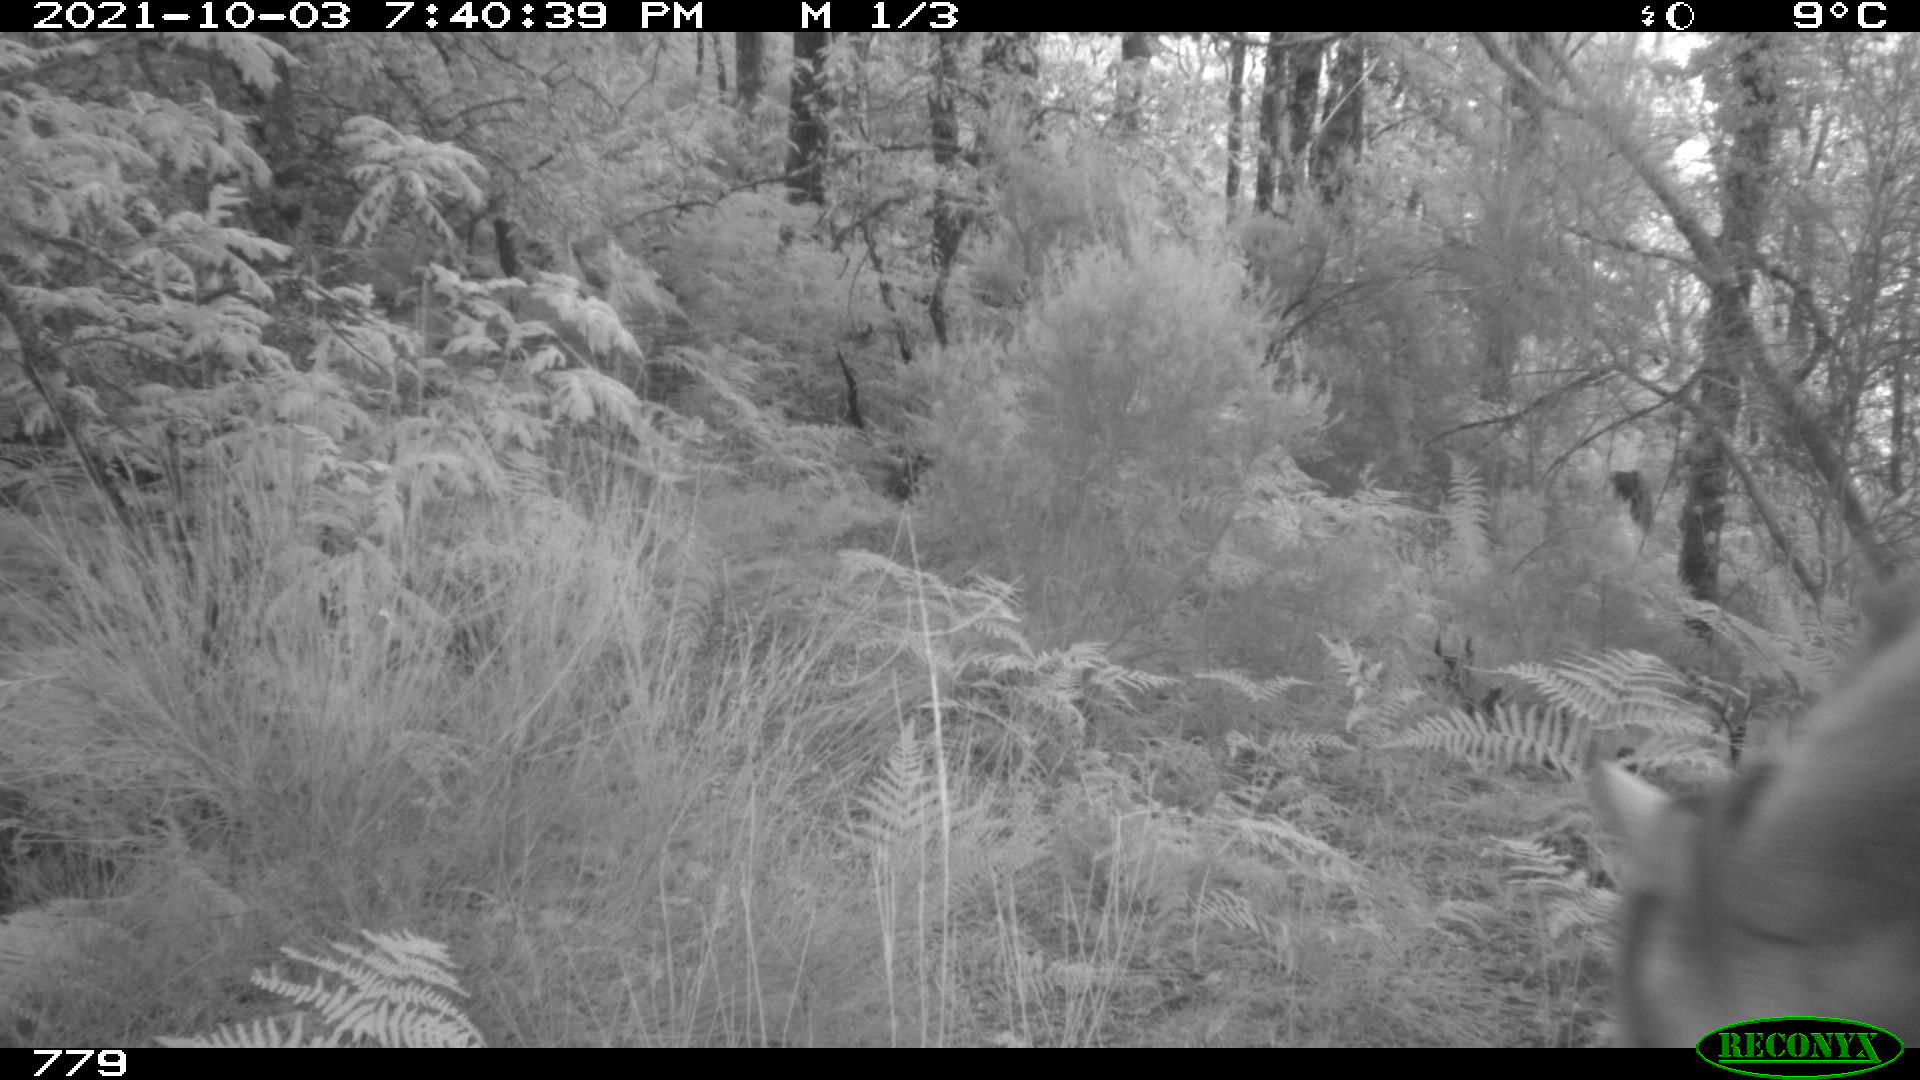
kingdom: Animalia
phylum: Chordata
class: Mammalia
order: Perissodactyla
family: Equidae
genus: Equus
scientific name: Equus caballus
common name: Horse
